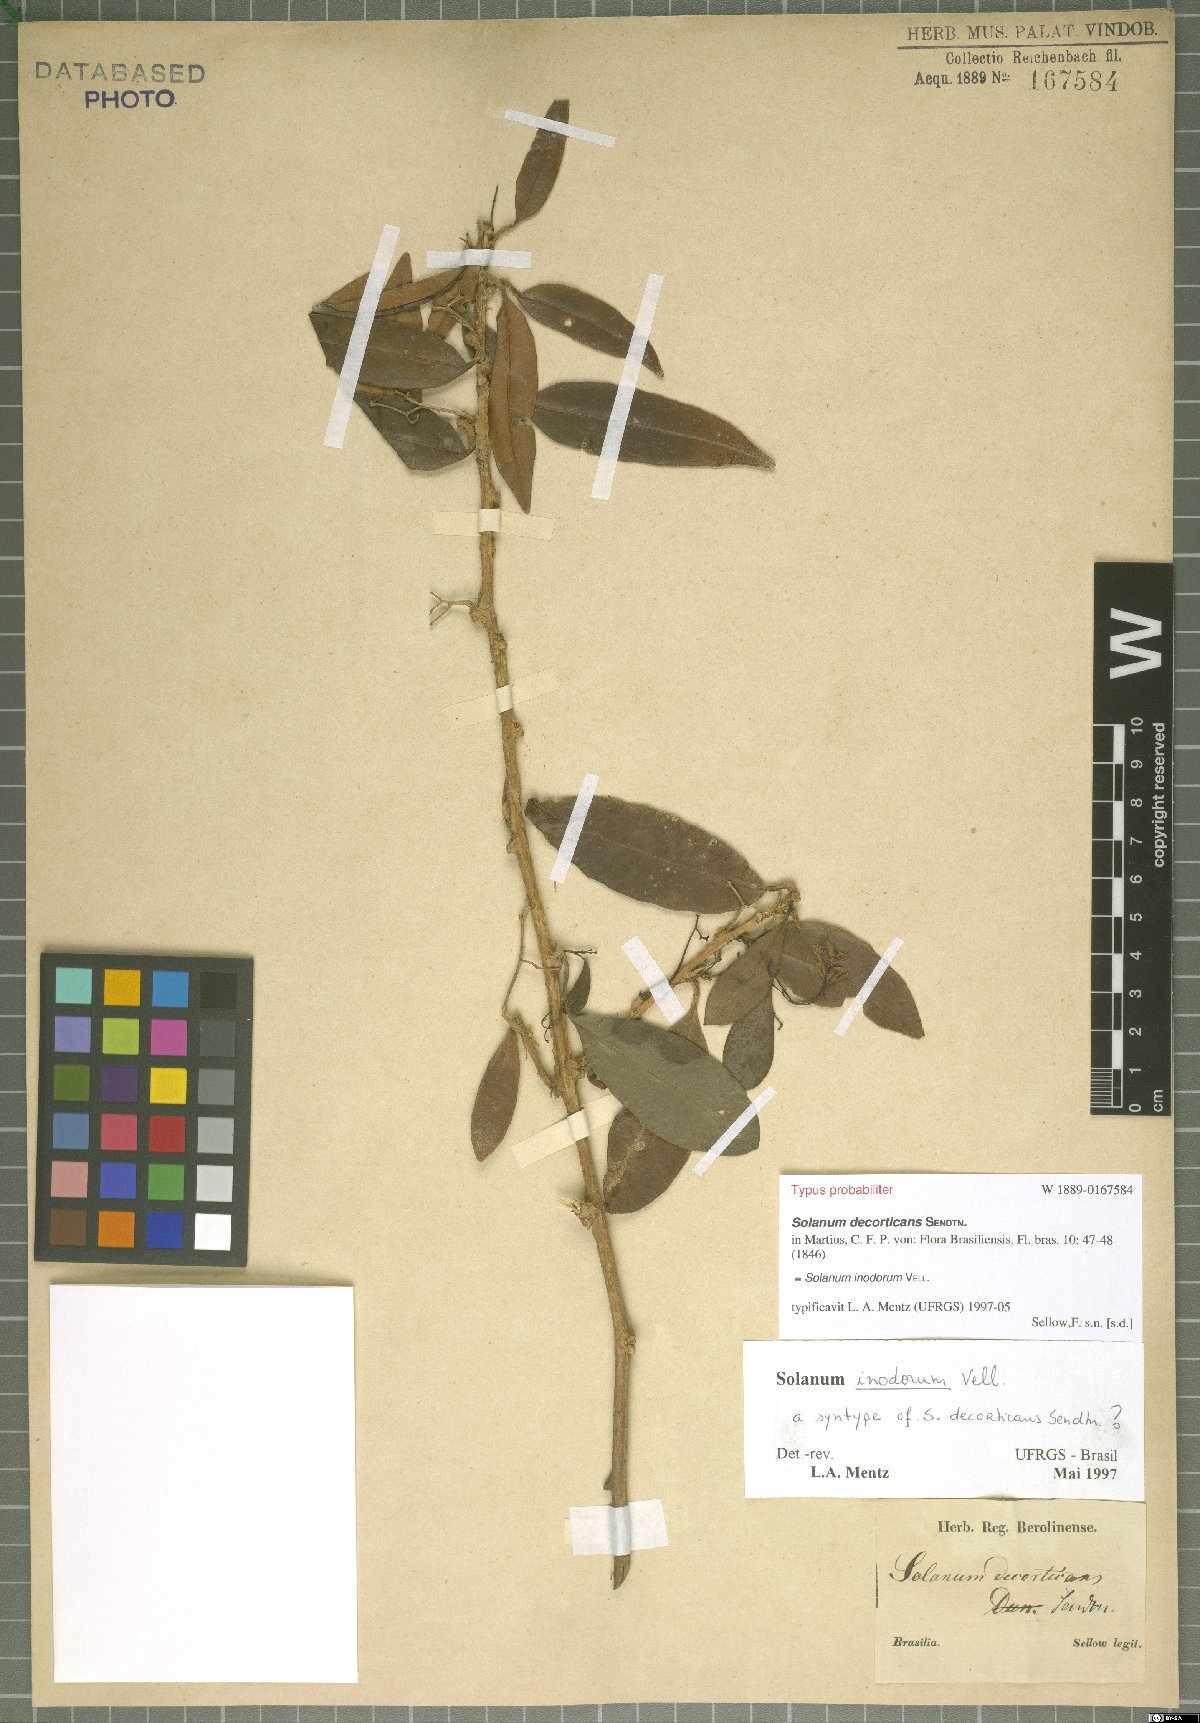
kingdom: Plantae
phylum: Tracheophyta
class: Magnoliopsida
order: Solanales
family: Solanaceae
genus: Solanum
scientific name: Solanum inodorum
